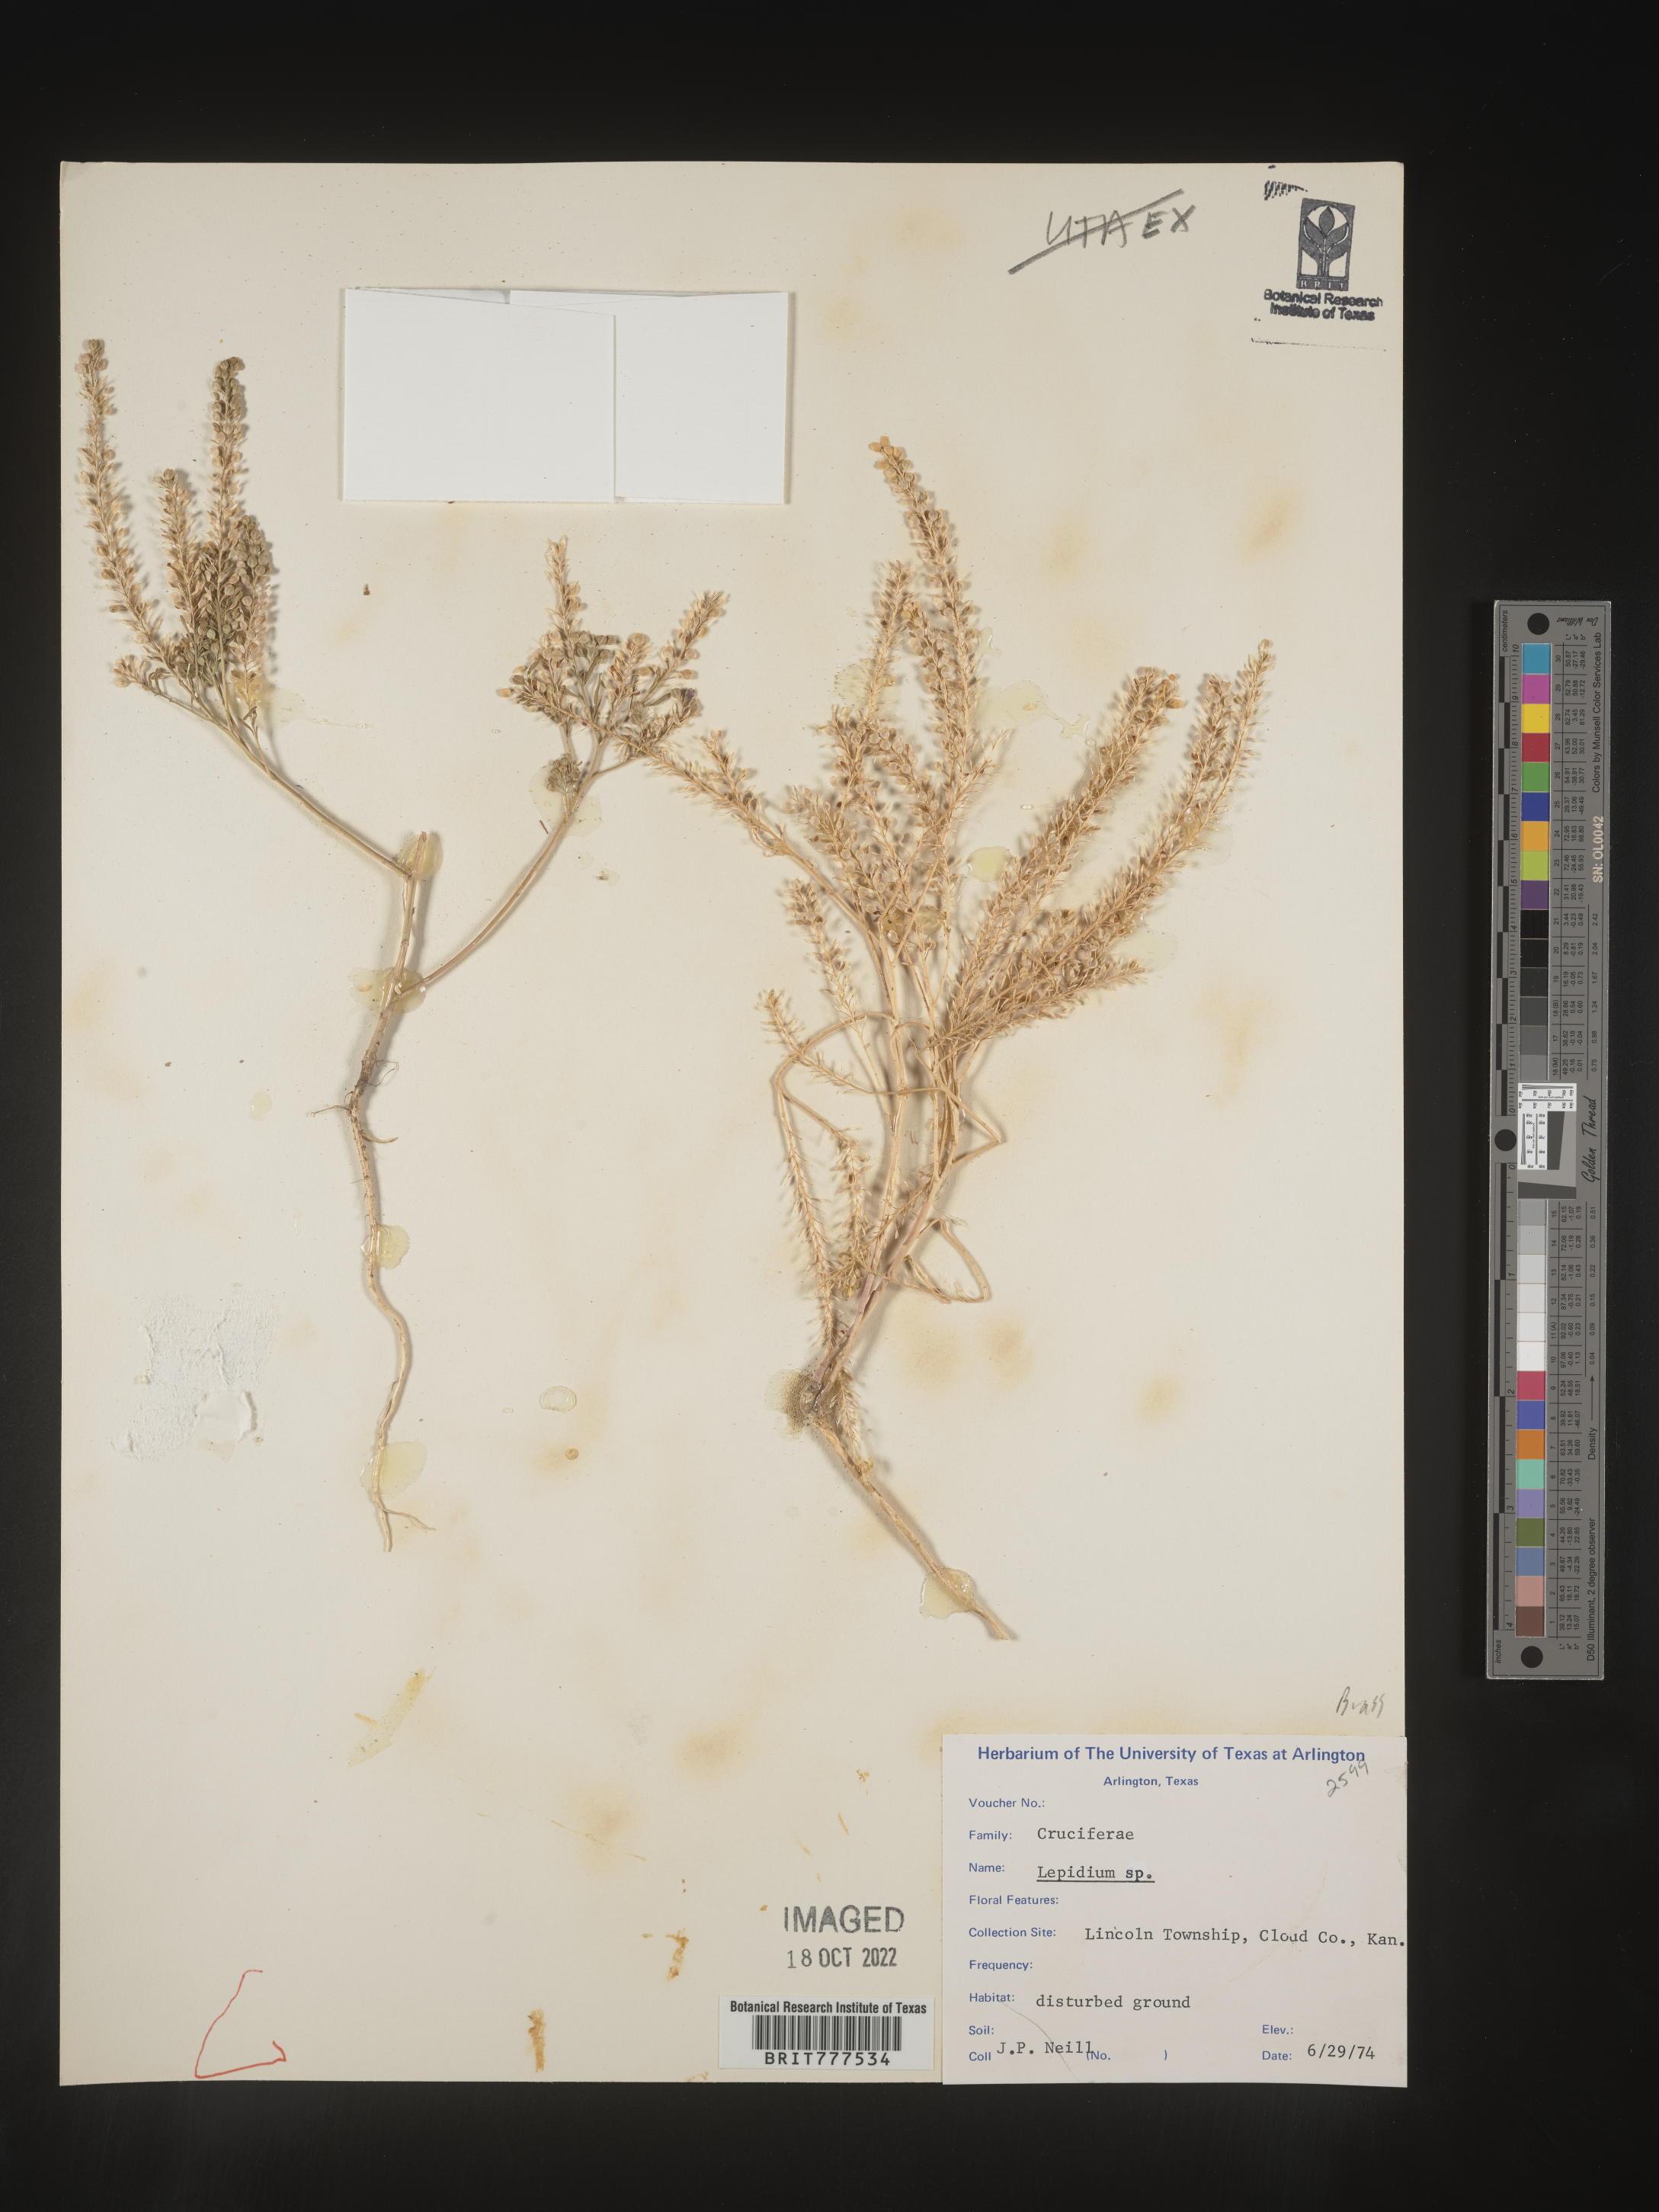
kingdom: Plantae
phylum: Tracheophyta
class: Magnoliopsida
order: Brassicales
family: Brassicaceae
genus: Lepidium
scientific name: Lepidium
